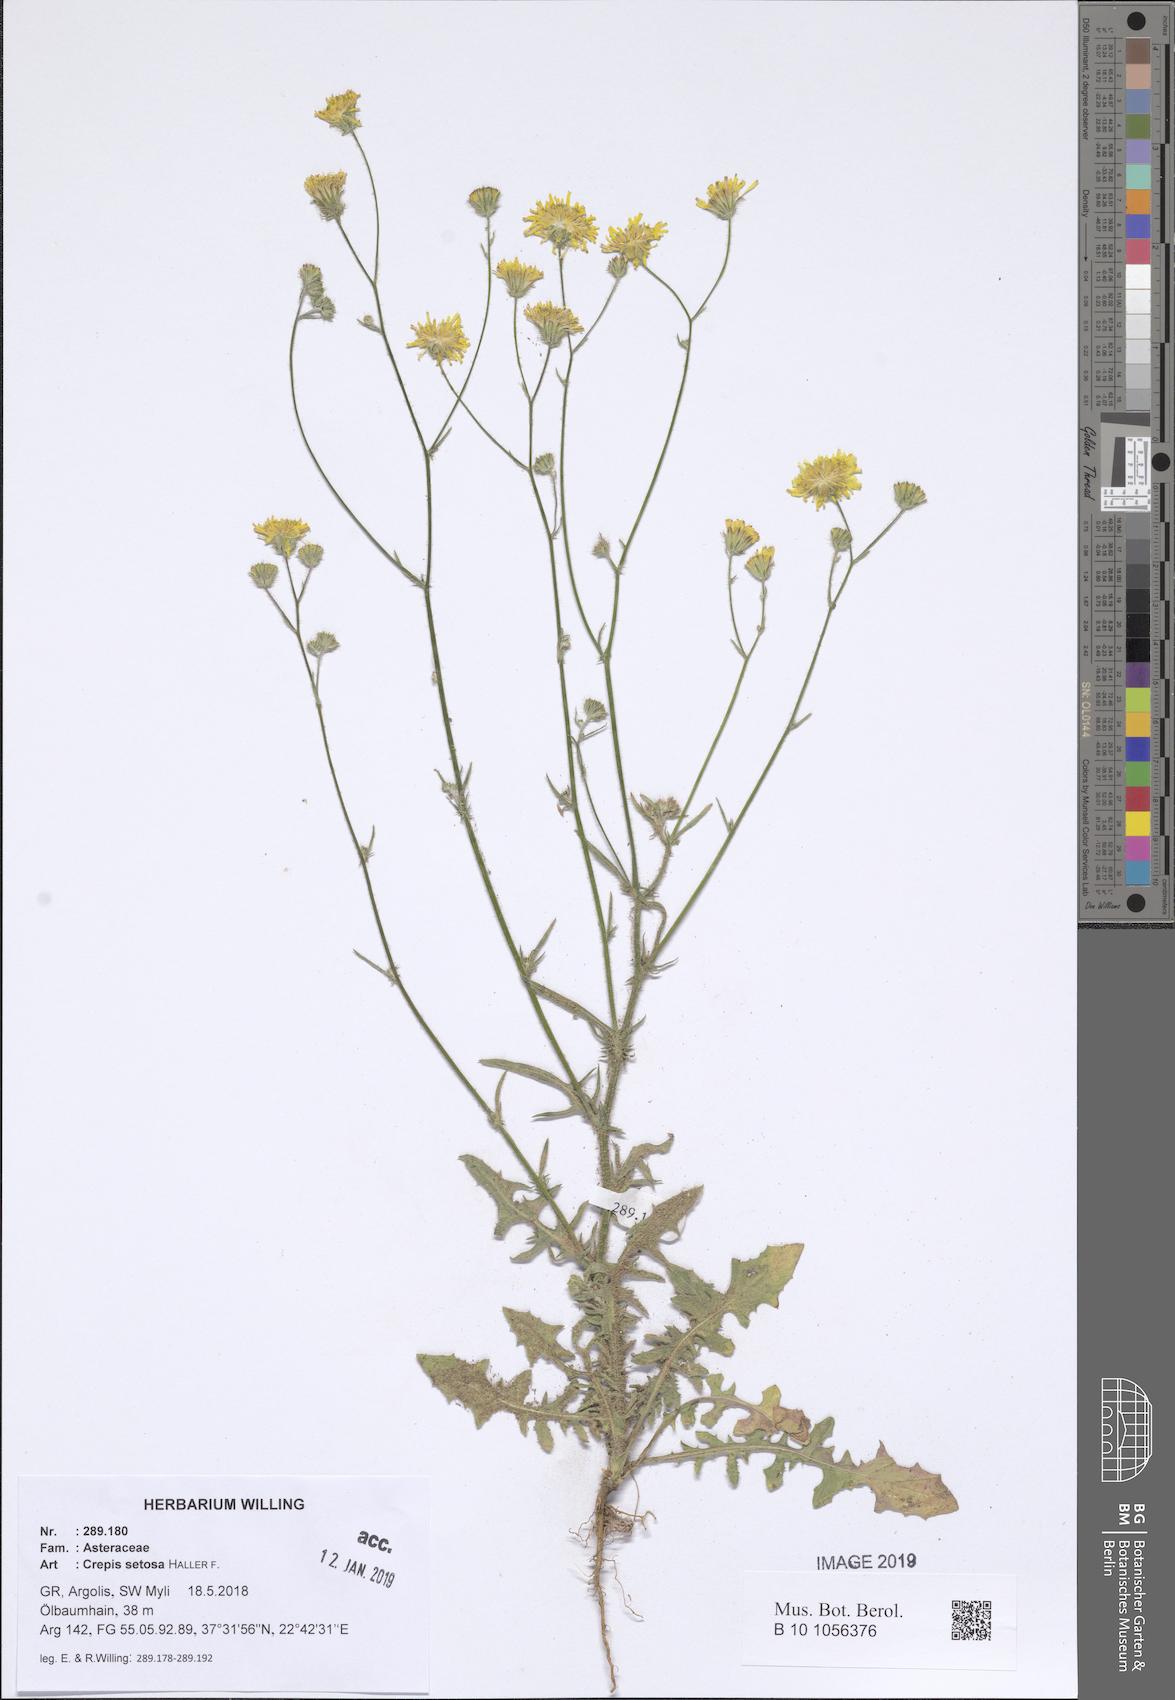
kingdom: Plantae
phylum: Tracheophyta
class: Magnoliopsida
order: Asterales
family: Asteraceae
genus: Crepis
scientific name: Crepis setosa
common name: Bristly hawk's-beard
